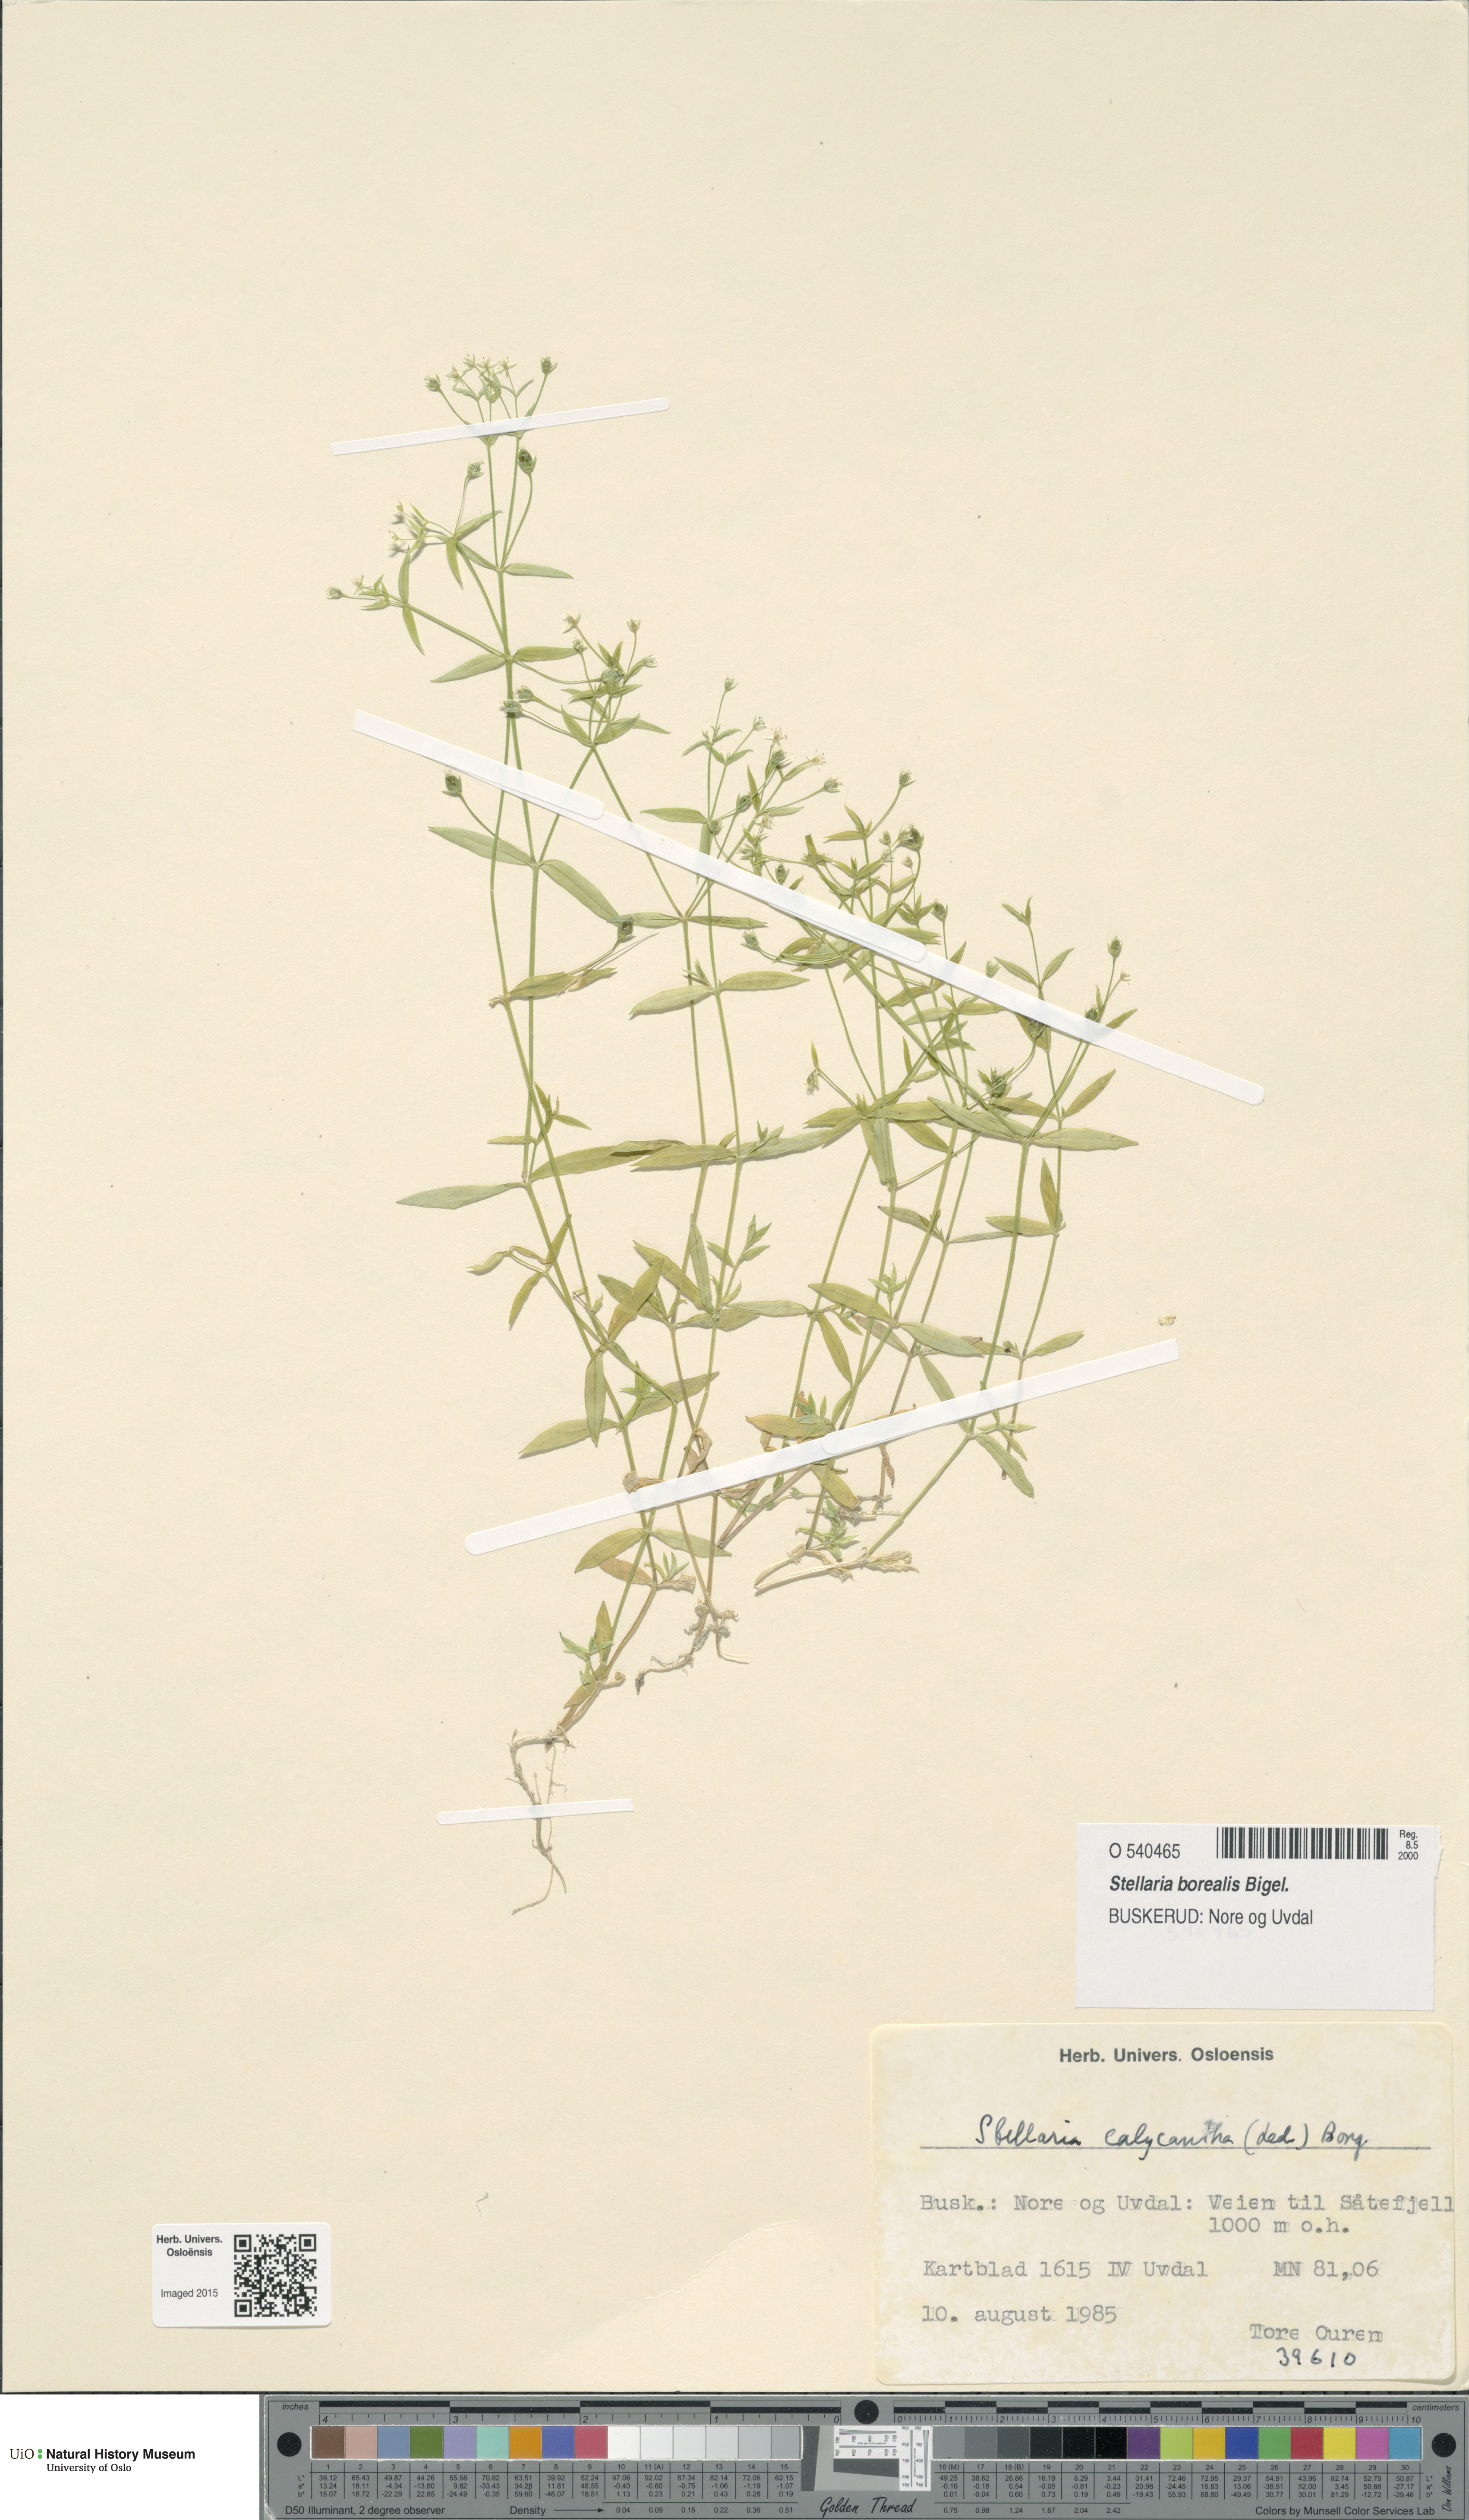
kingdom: Plantae
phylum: Tracheophyta
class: Magnoliopsida
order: Caryophyllales
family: Caryophyllaceae
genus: Stellaria
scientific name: Stellaria borealis
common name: Boreal starwort
